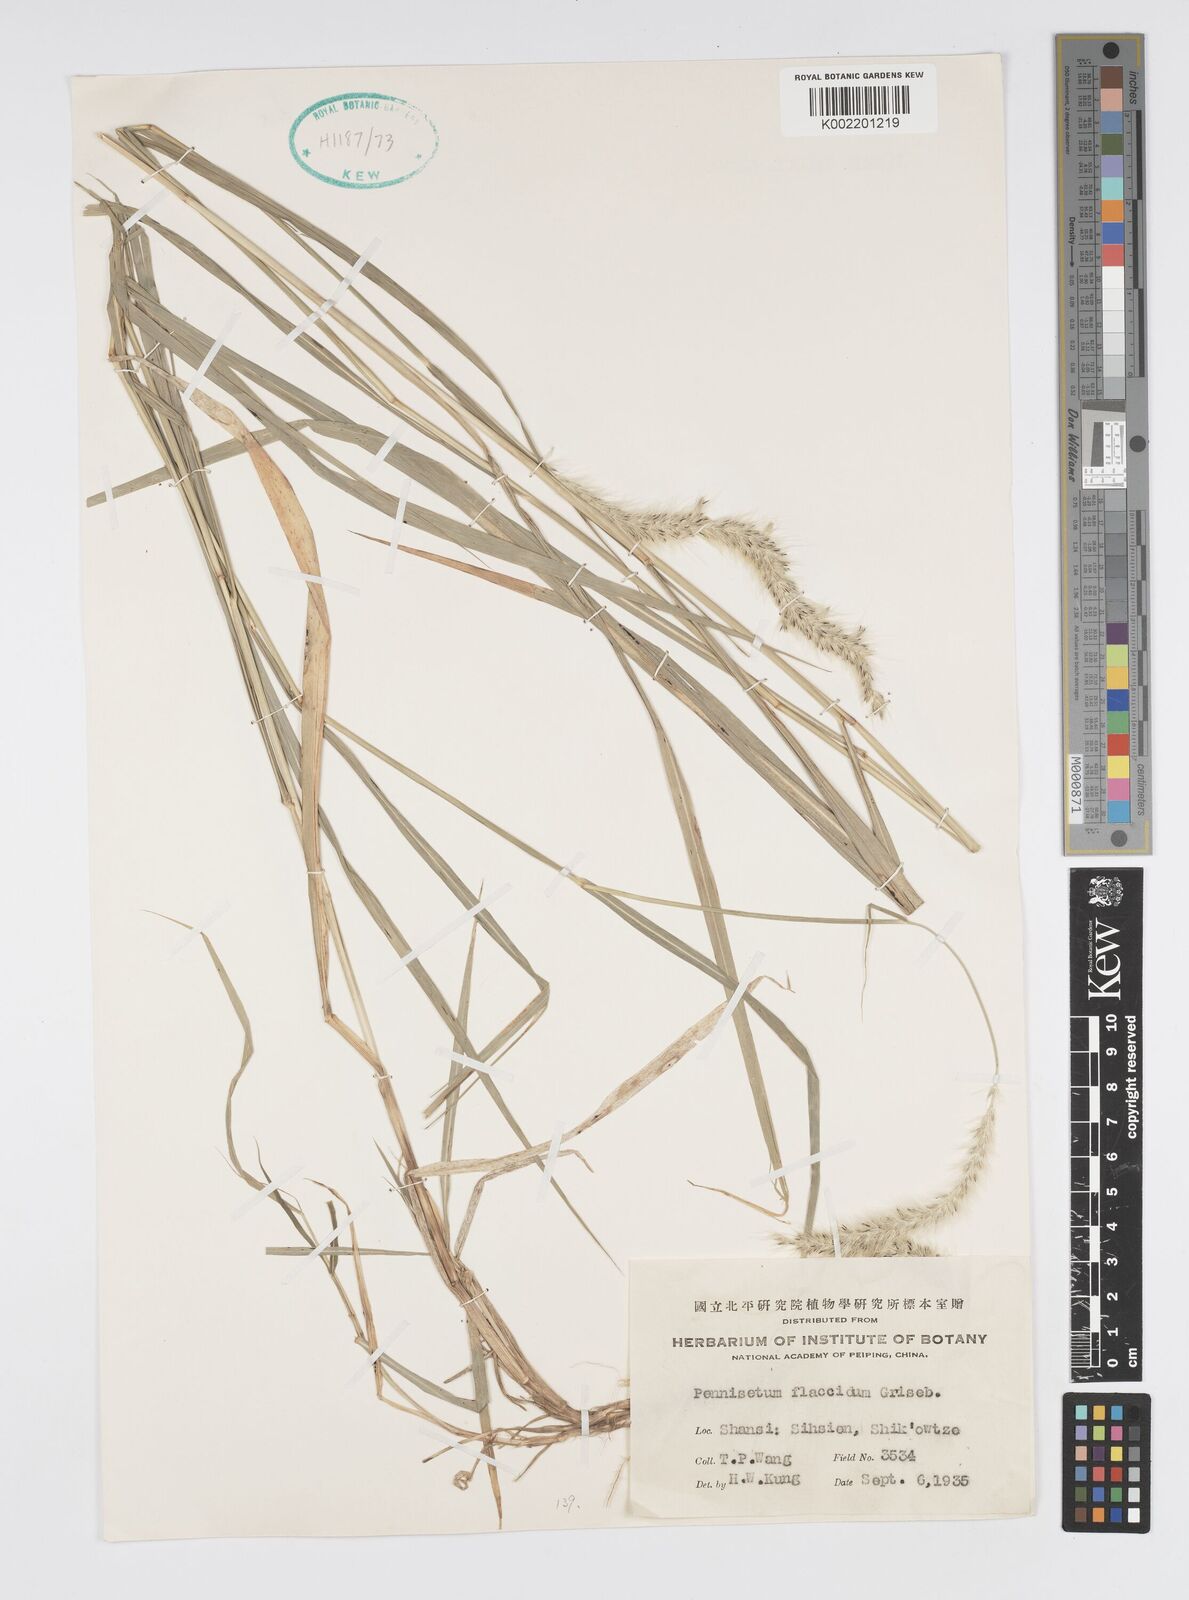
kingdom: Plantae
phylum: Tracheophyta
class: Liliopsida
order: Poales
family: Poaceae
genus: Cenchrus
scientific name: Cenchrus flaccidus
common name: Flaccid grass
